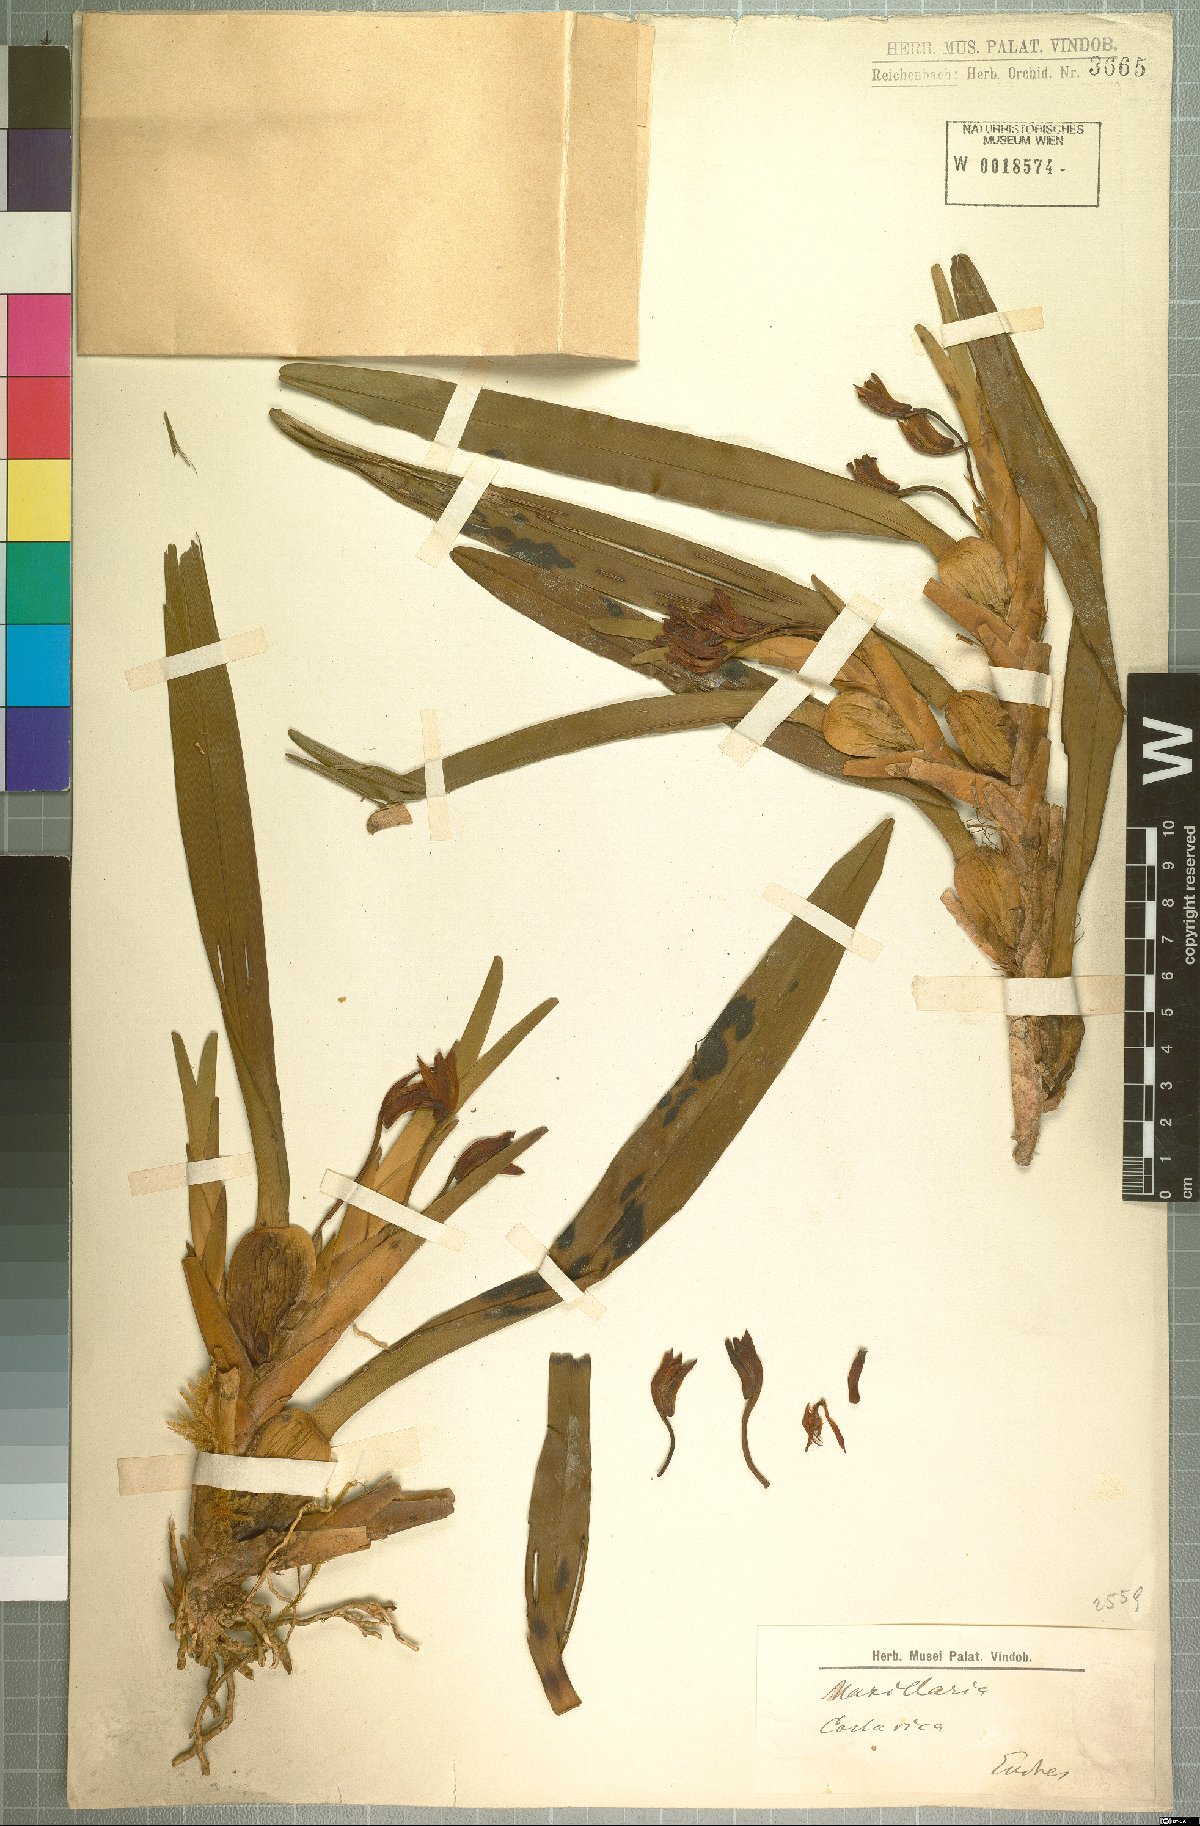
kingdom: Plantae
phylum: Tracheophyta
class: Liliopsida
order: Asparagales
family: Orchidaceae
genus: Maxillaria
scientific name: Maxillaria
